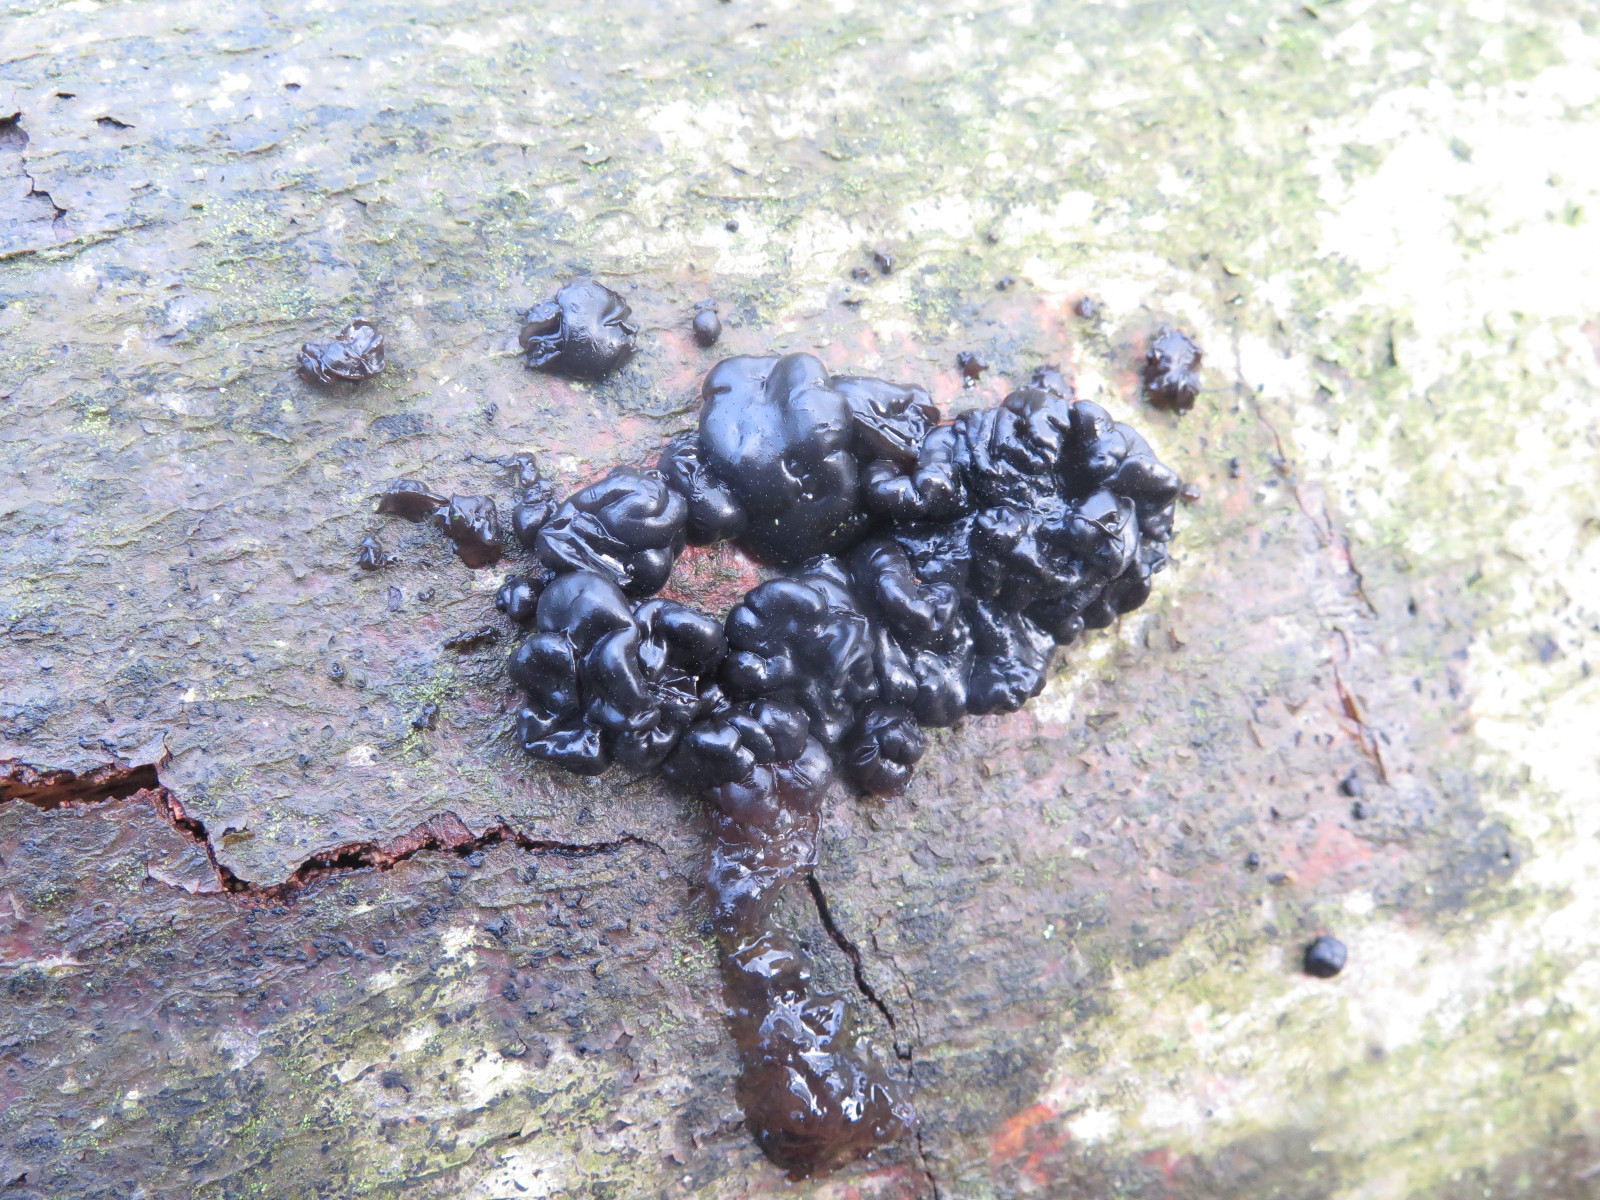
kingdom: Fungi
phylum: Basidiomycota
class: Agaricomycetes
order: Auriculariales
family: Auriculariaceae
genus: Exidia
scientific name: Exidia nigricans
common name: almindelig bævretop
